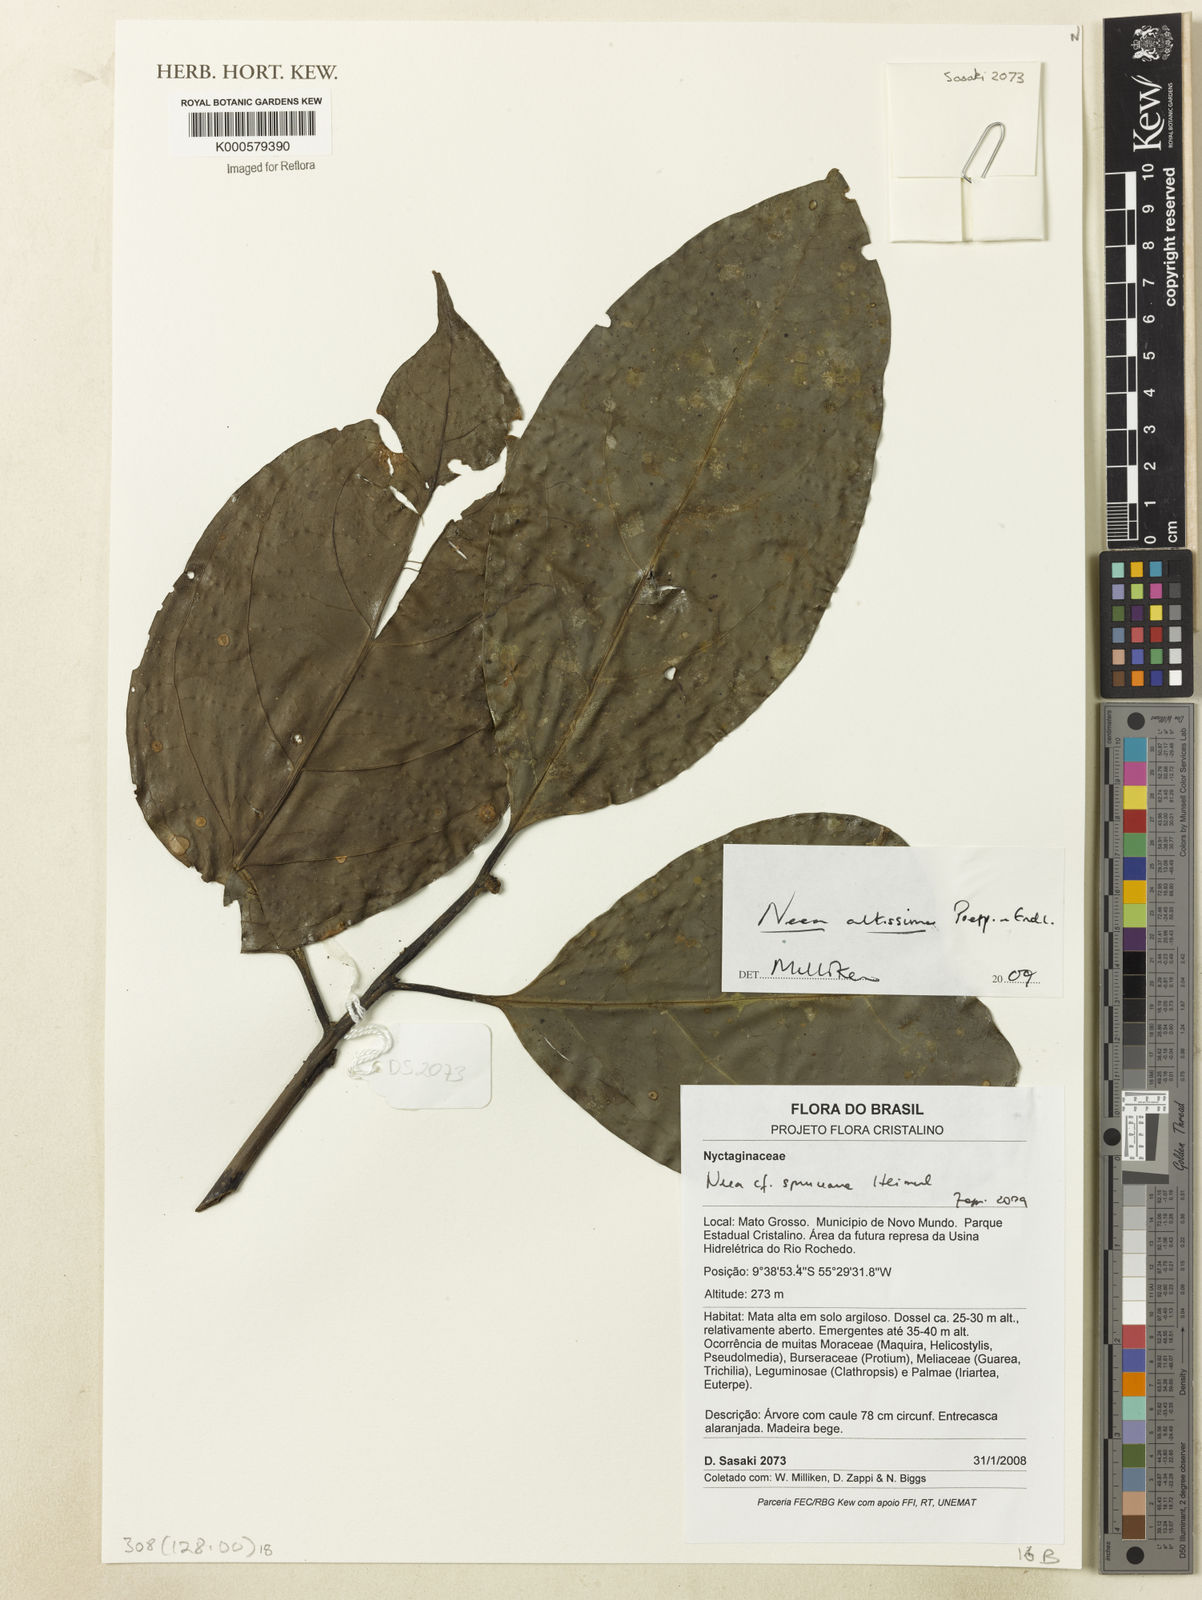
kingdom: Plantae
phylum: Tracheophyta
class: Magnoliopsida
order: Caryophyllales
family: Nyctaginaceae
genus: Neea
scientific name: Neea altissima
